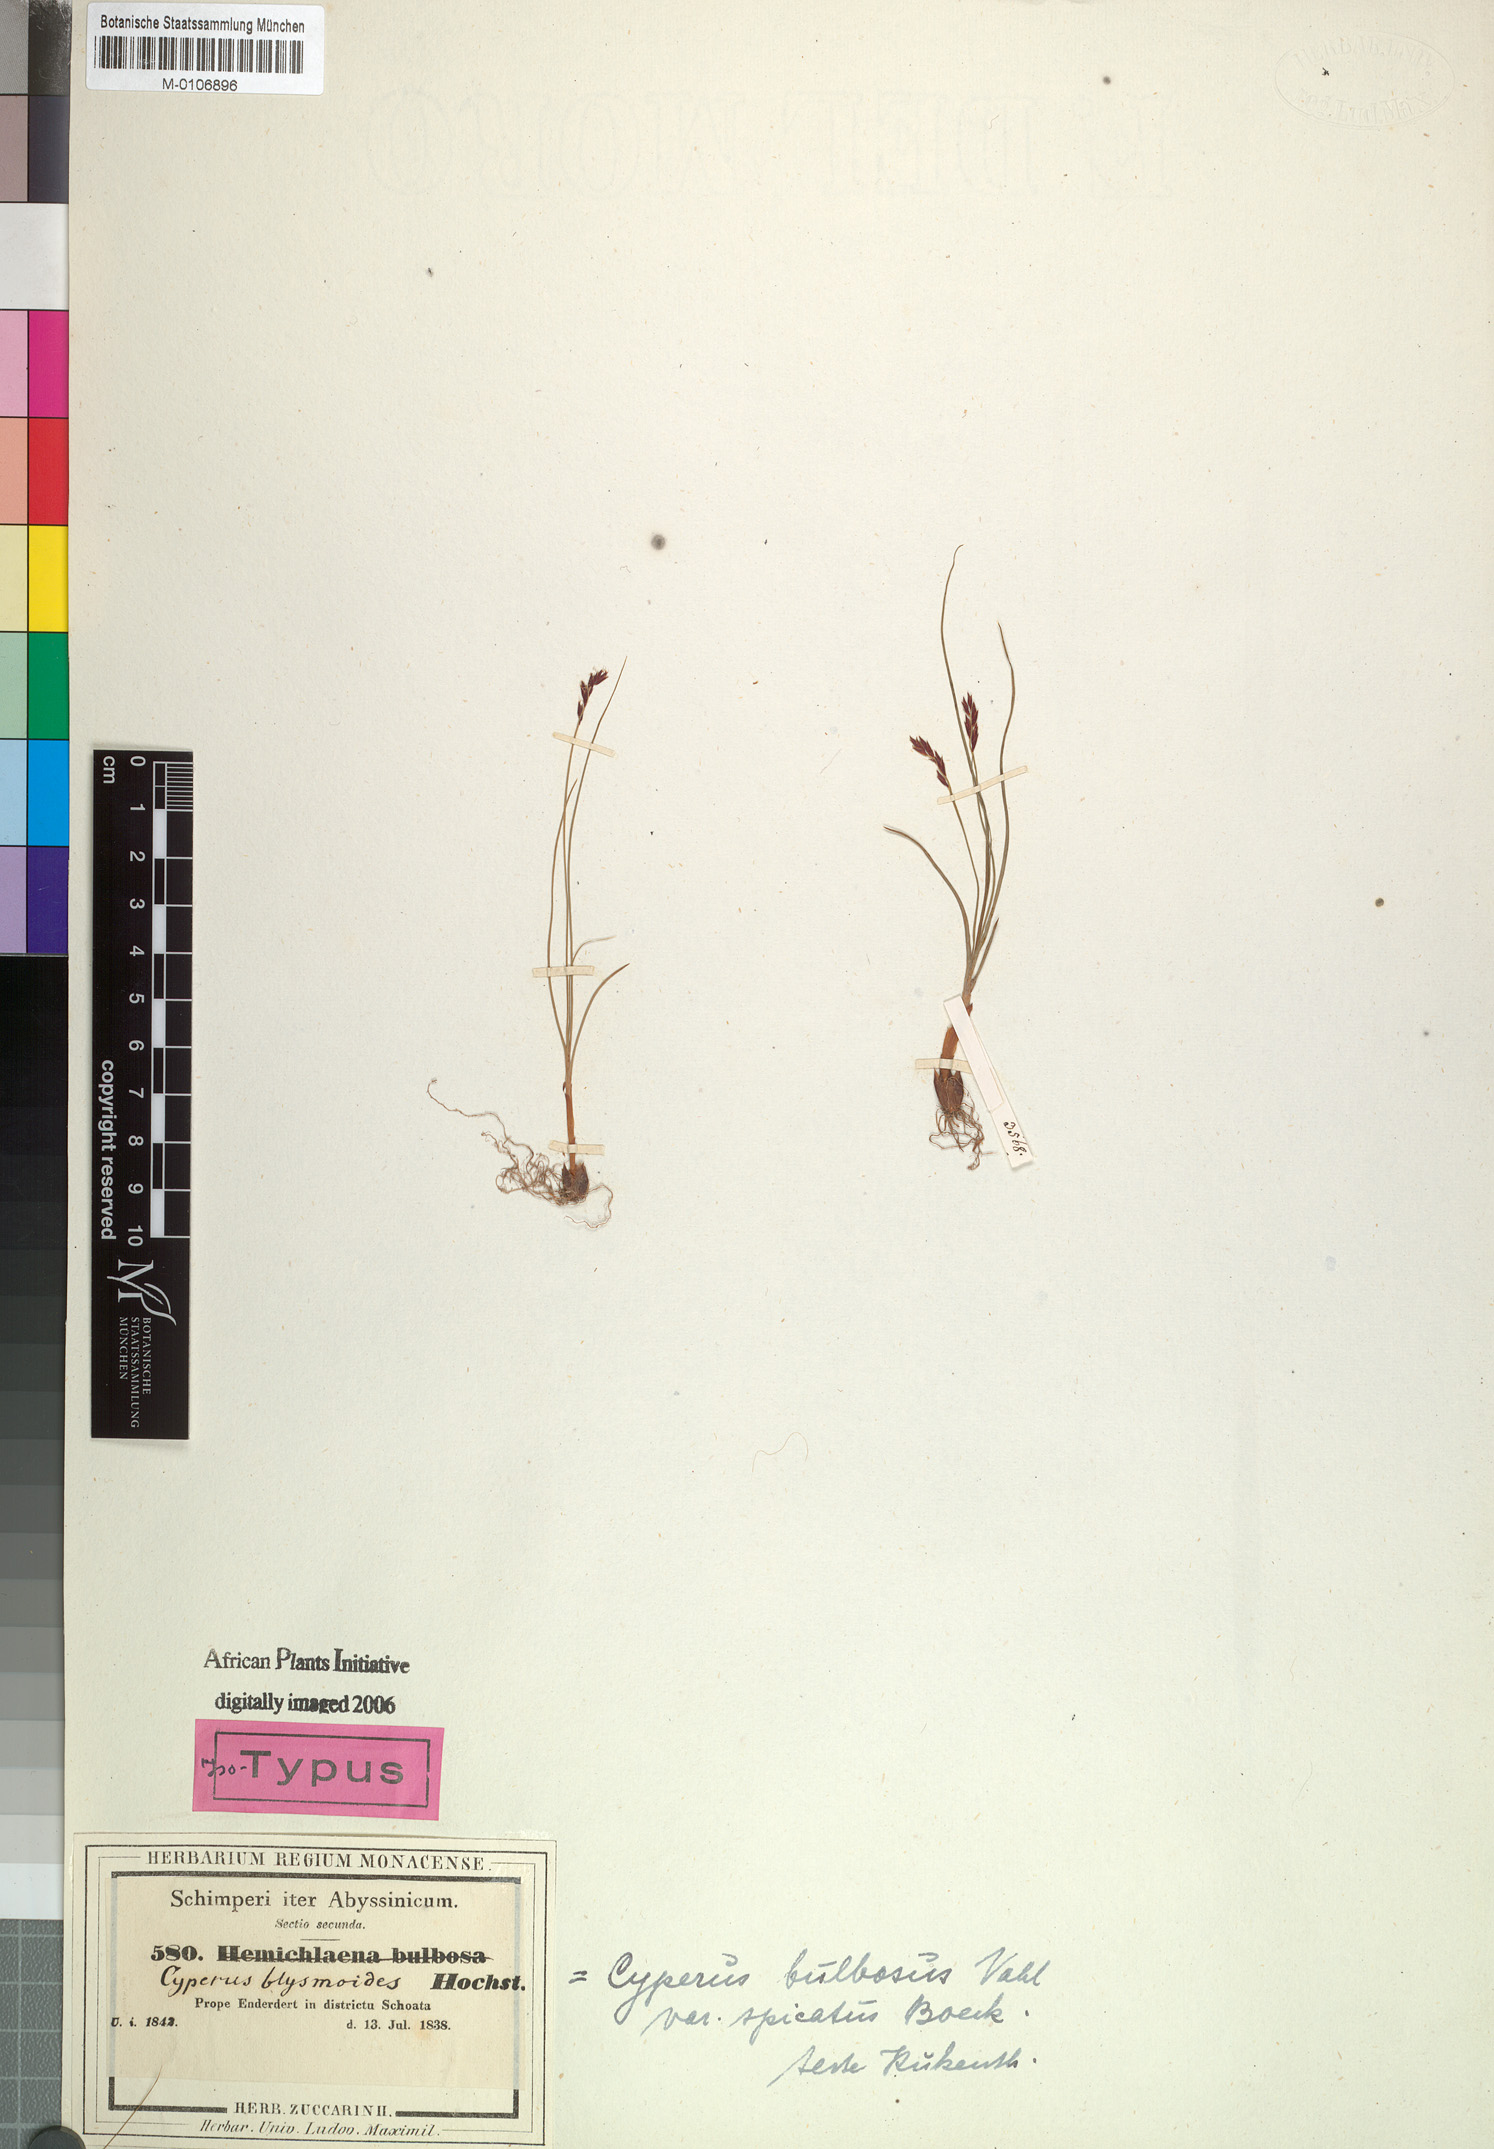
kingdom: Plantae
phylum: Tracheophyta
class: Liliopsida
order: Poales
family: Cyperaceae
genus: Cyperus
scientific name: Cyperus blysmoides
